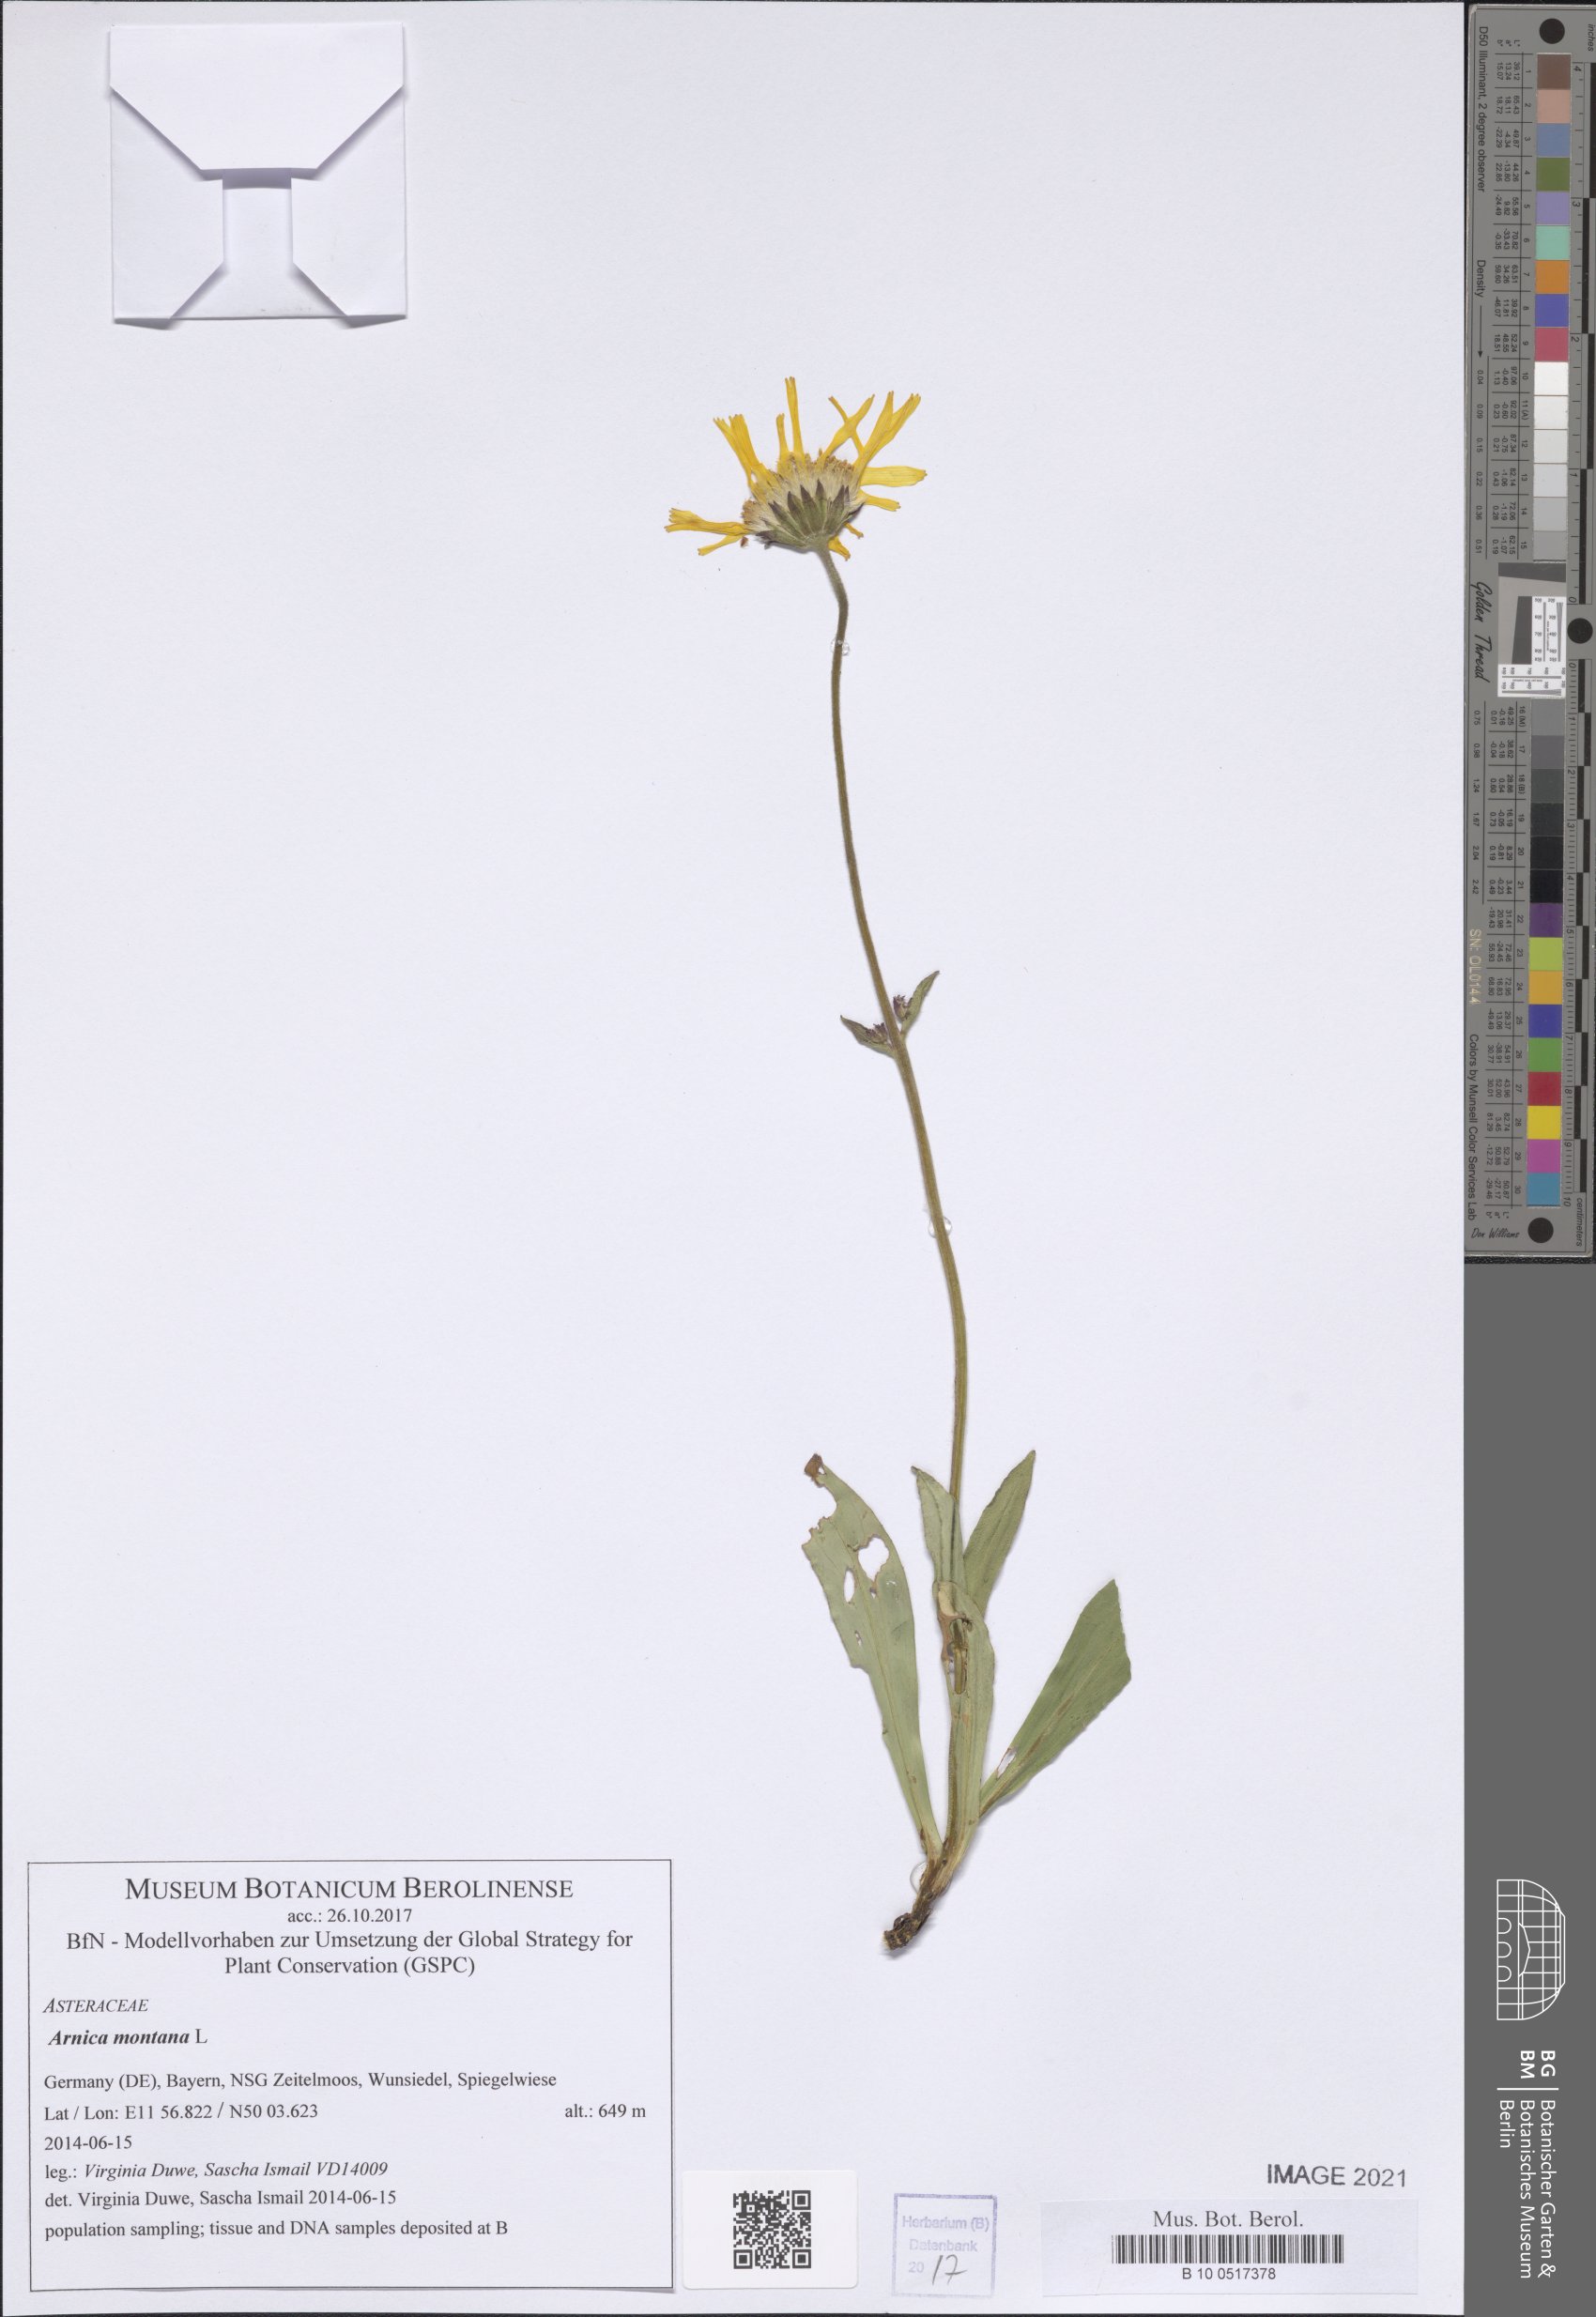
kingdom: Plantae
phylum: Tracheophyta
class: Magnoliopsida
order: Asterales
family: Asteraceae
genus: Arnica
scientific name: Arnica montana
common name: Leopard's bane
